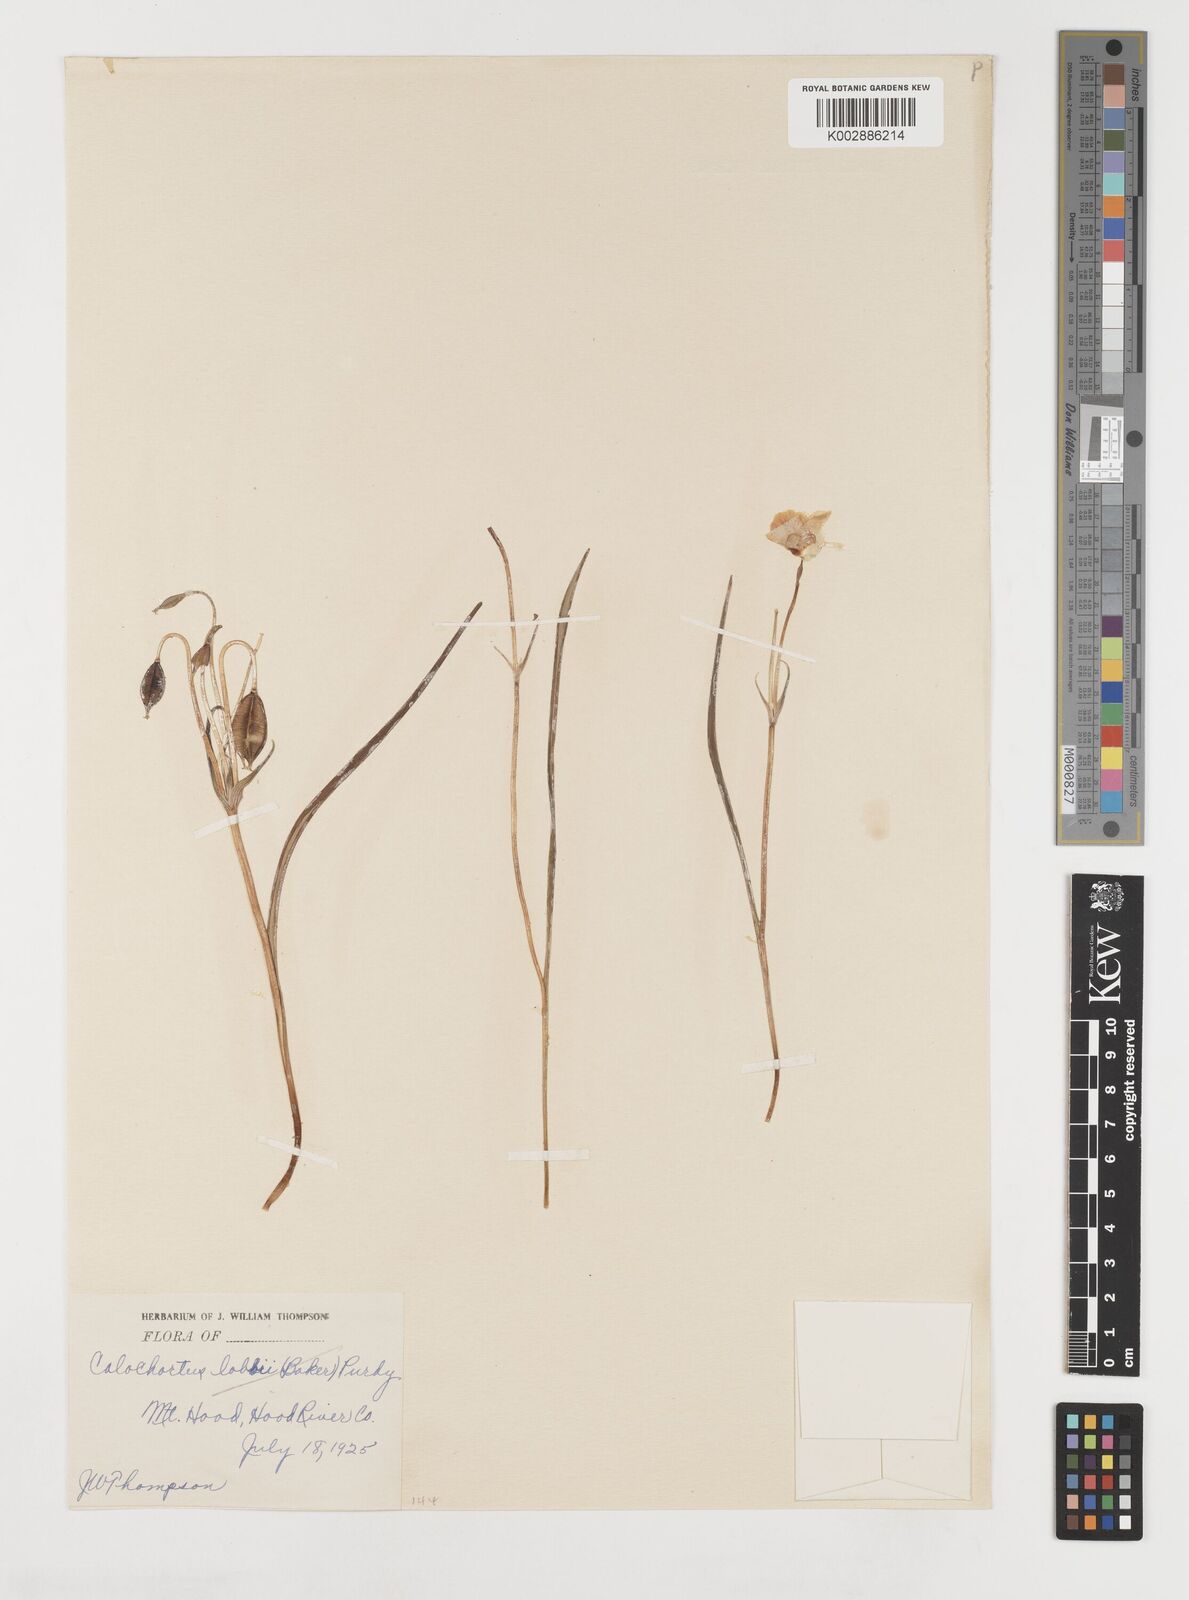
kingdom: Plantae
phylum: Tracheophyta
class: Liliopsida
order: Liliales
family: Liliaceae
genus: Calochortus
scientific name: Calochortus subalpinus
